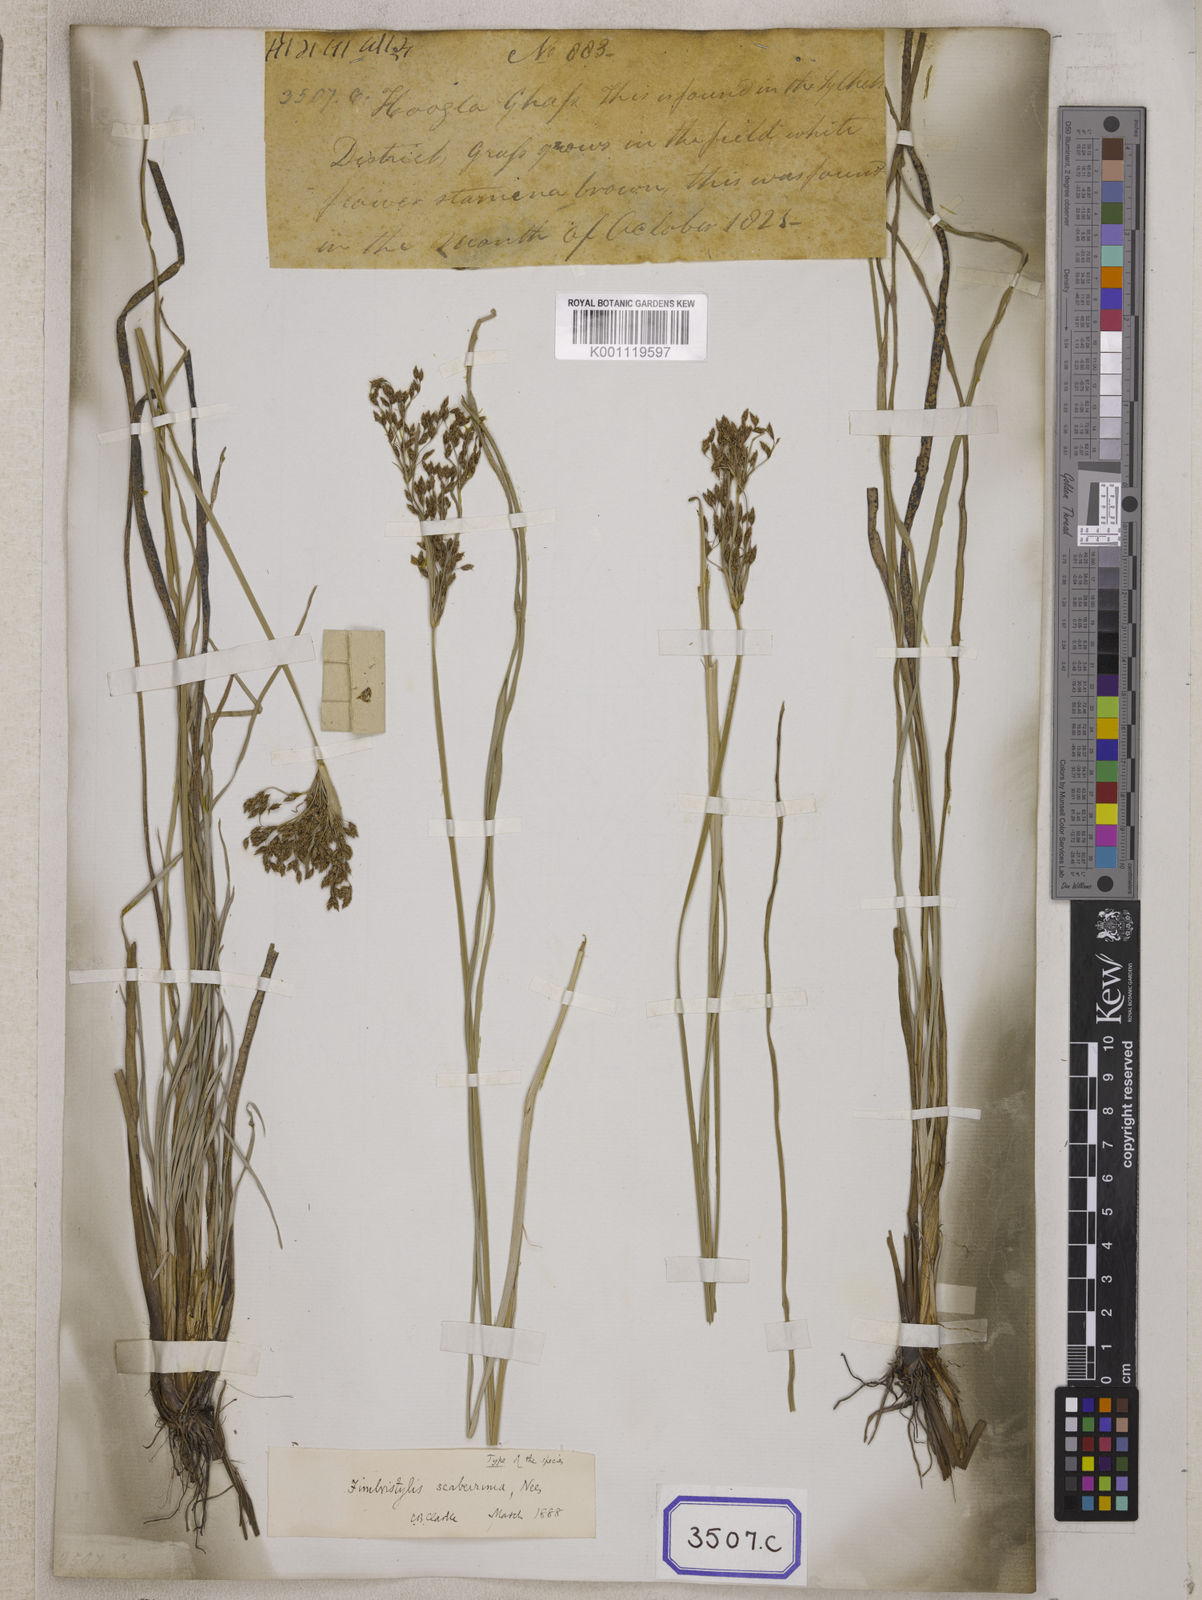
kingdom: Plantae
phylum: Tracheophyta
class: Liliopsida
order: Poales
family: Cyperaceae
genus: Fimbristylis
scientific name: Fimbristylis
